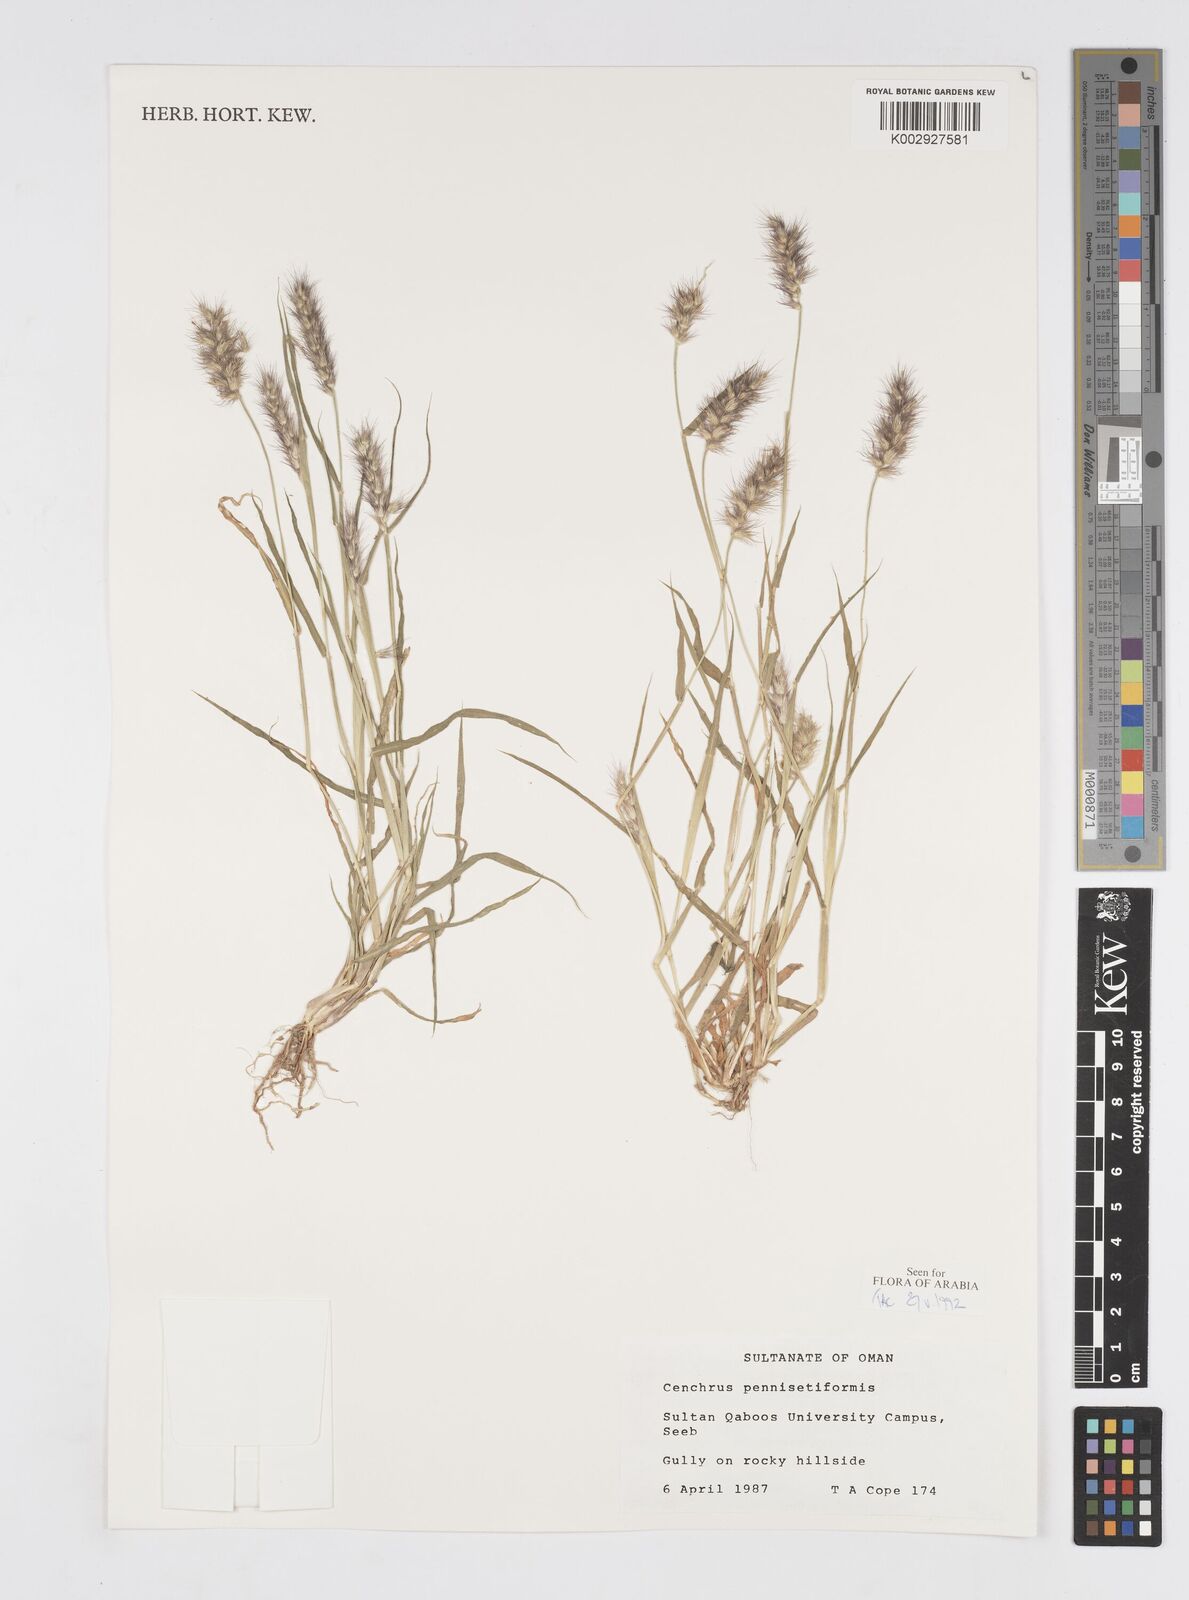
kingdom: Plantae
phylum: Tracheophyta
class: Liliopsida
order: Poales
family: Poaceae
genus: Cenchrus
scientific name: Cenchrus pennisetiformis
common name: Cloncurry
